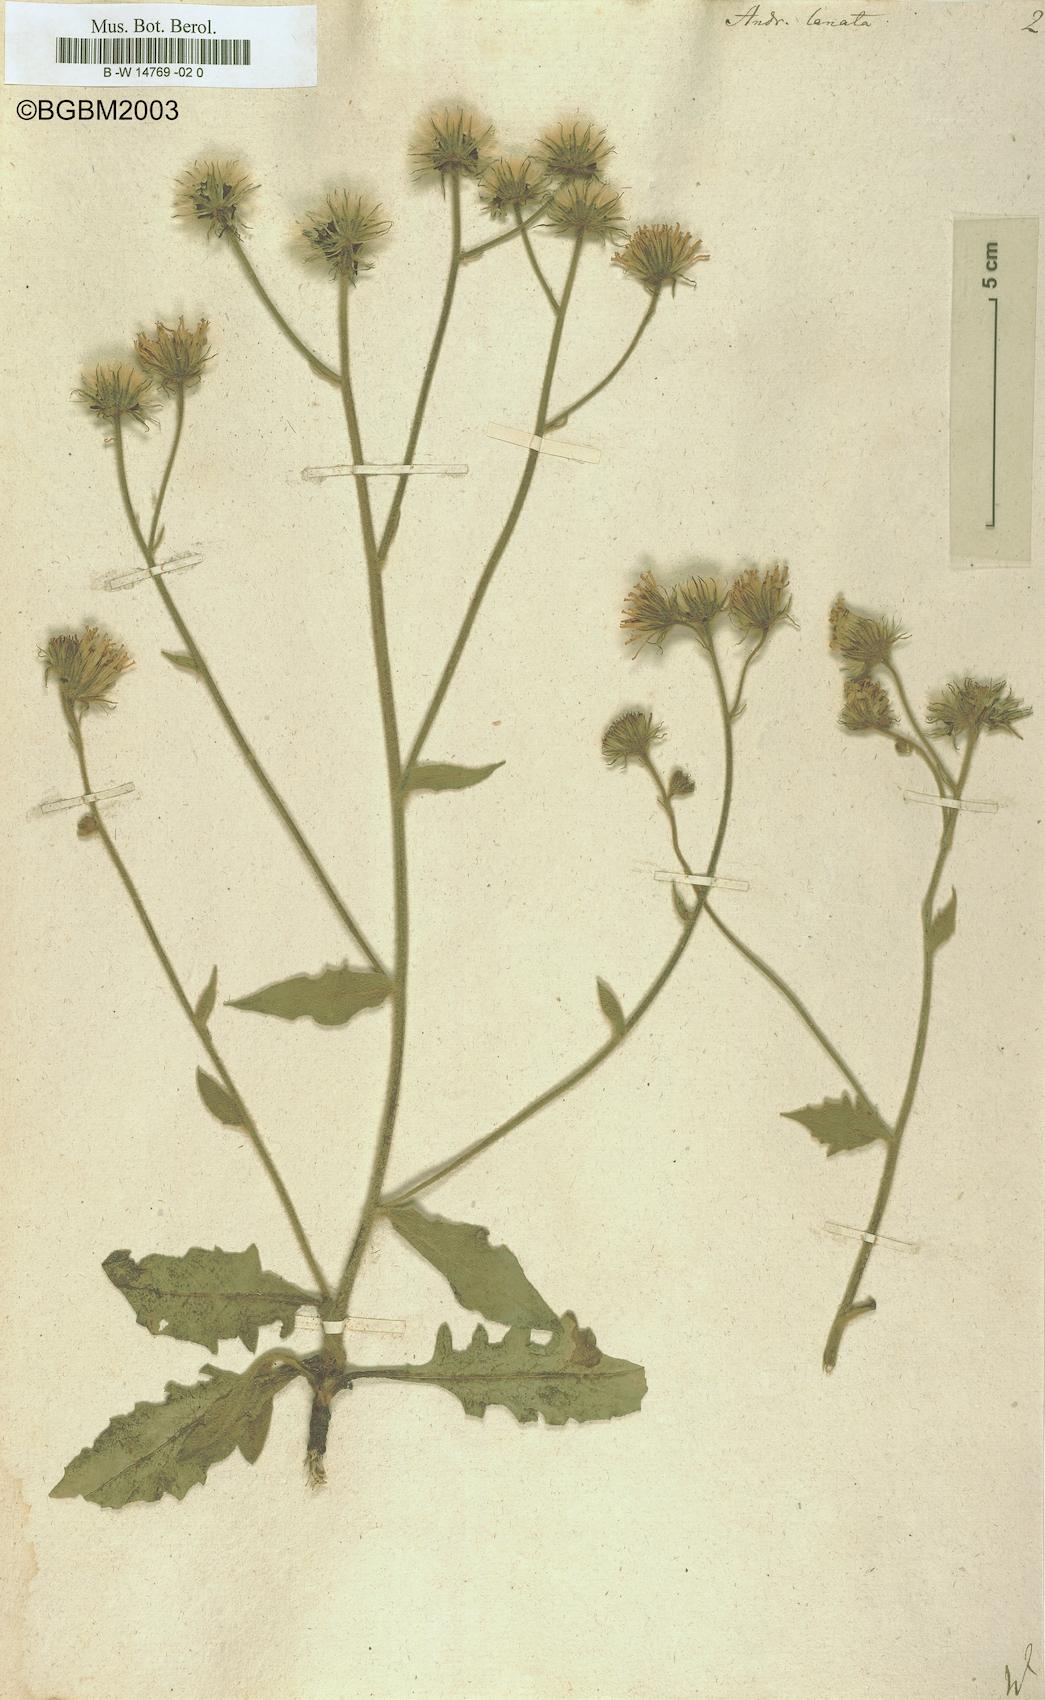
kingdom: Plantae
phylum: Tracheophyta
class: Magnoliopsida
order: Asterales
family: Asteraceae
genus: Andryala
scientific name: Andryala lanata
